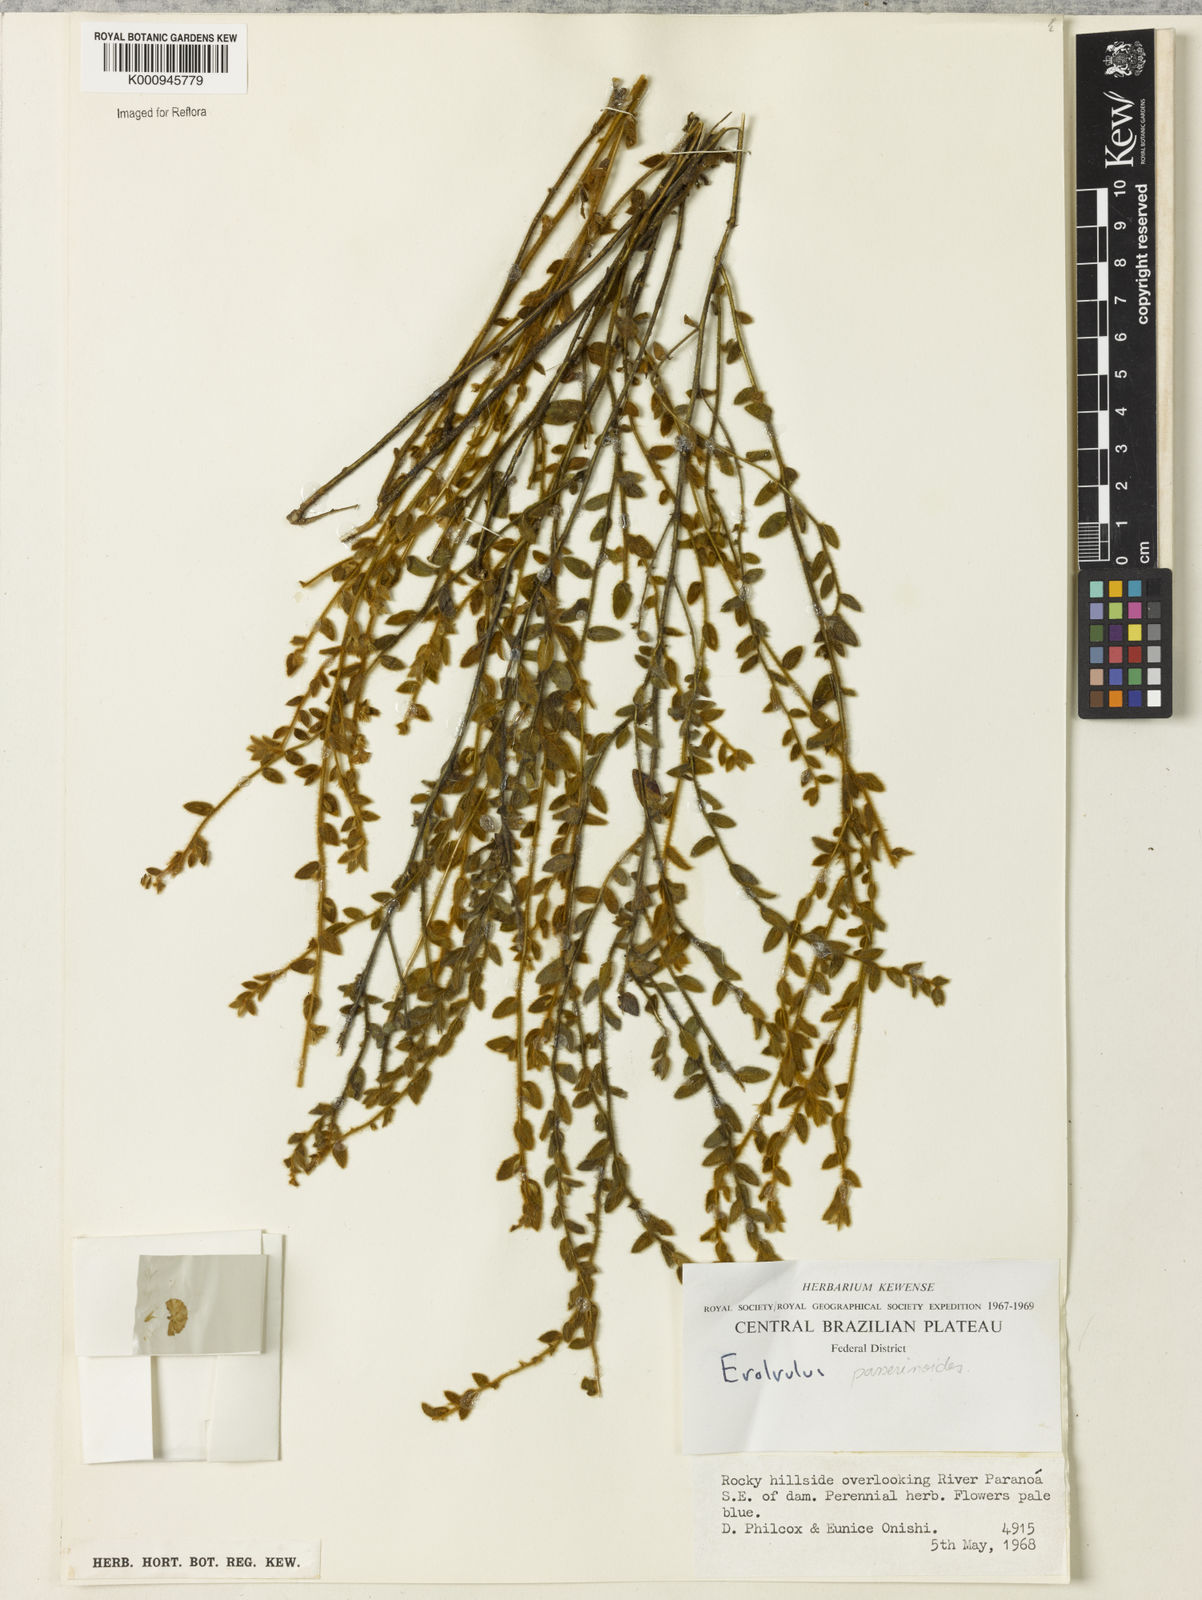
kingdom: Plantae
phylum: Tracheophyta
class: Magnoliopsida
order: Solanales
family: Convolvulaceae
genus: Evolvulus
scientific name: Evolvulus
